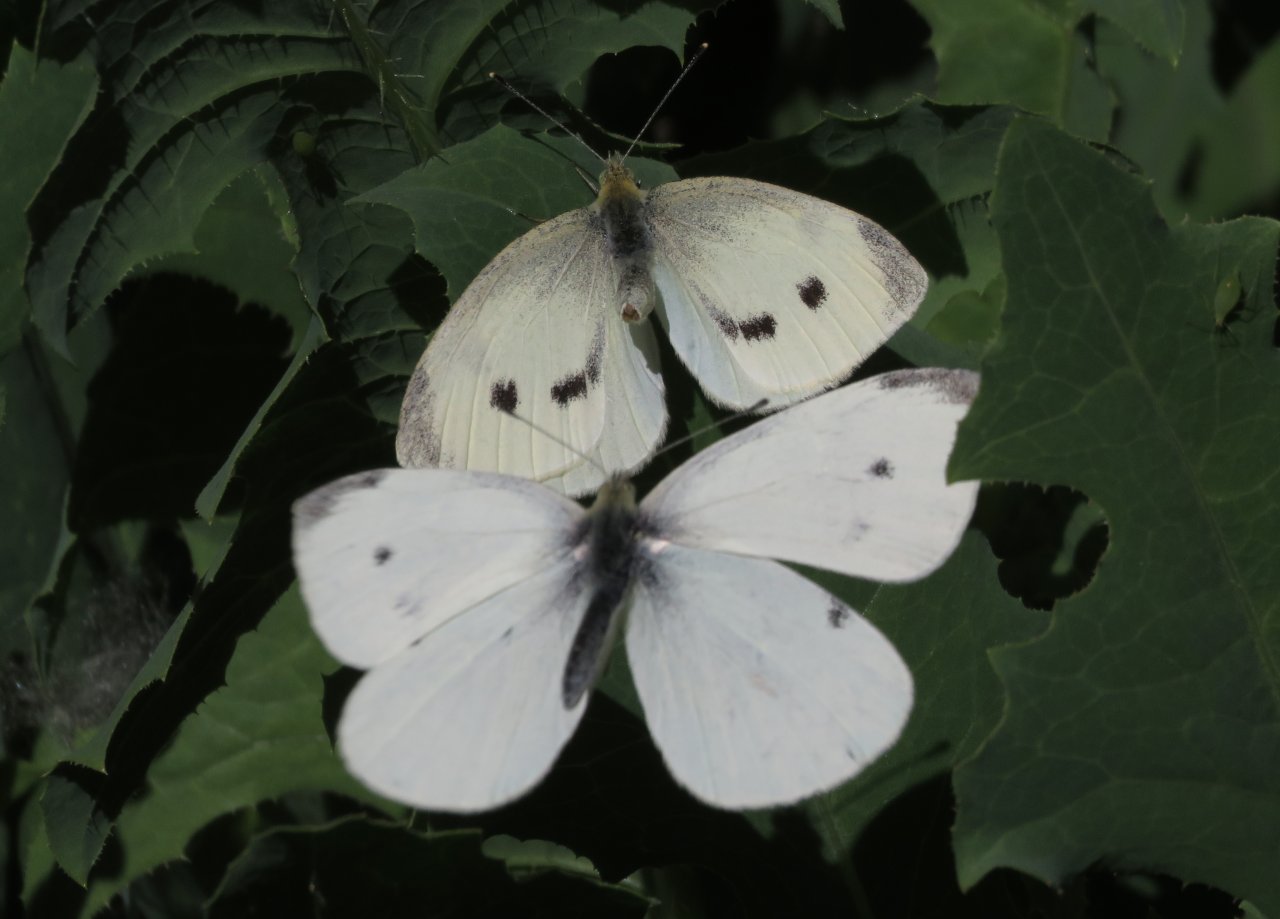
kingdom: Animalia
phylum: Arthropoda
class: Insecta
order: Lepidoptera
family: Pieridae
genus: Pieris
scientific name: Pieris rapae
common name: Cabbage White
